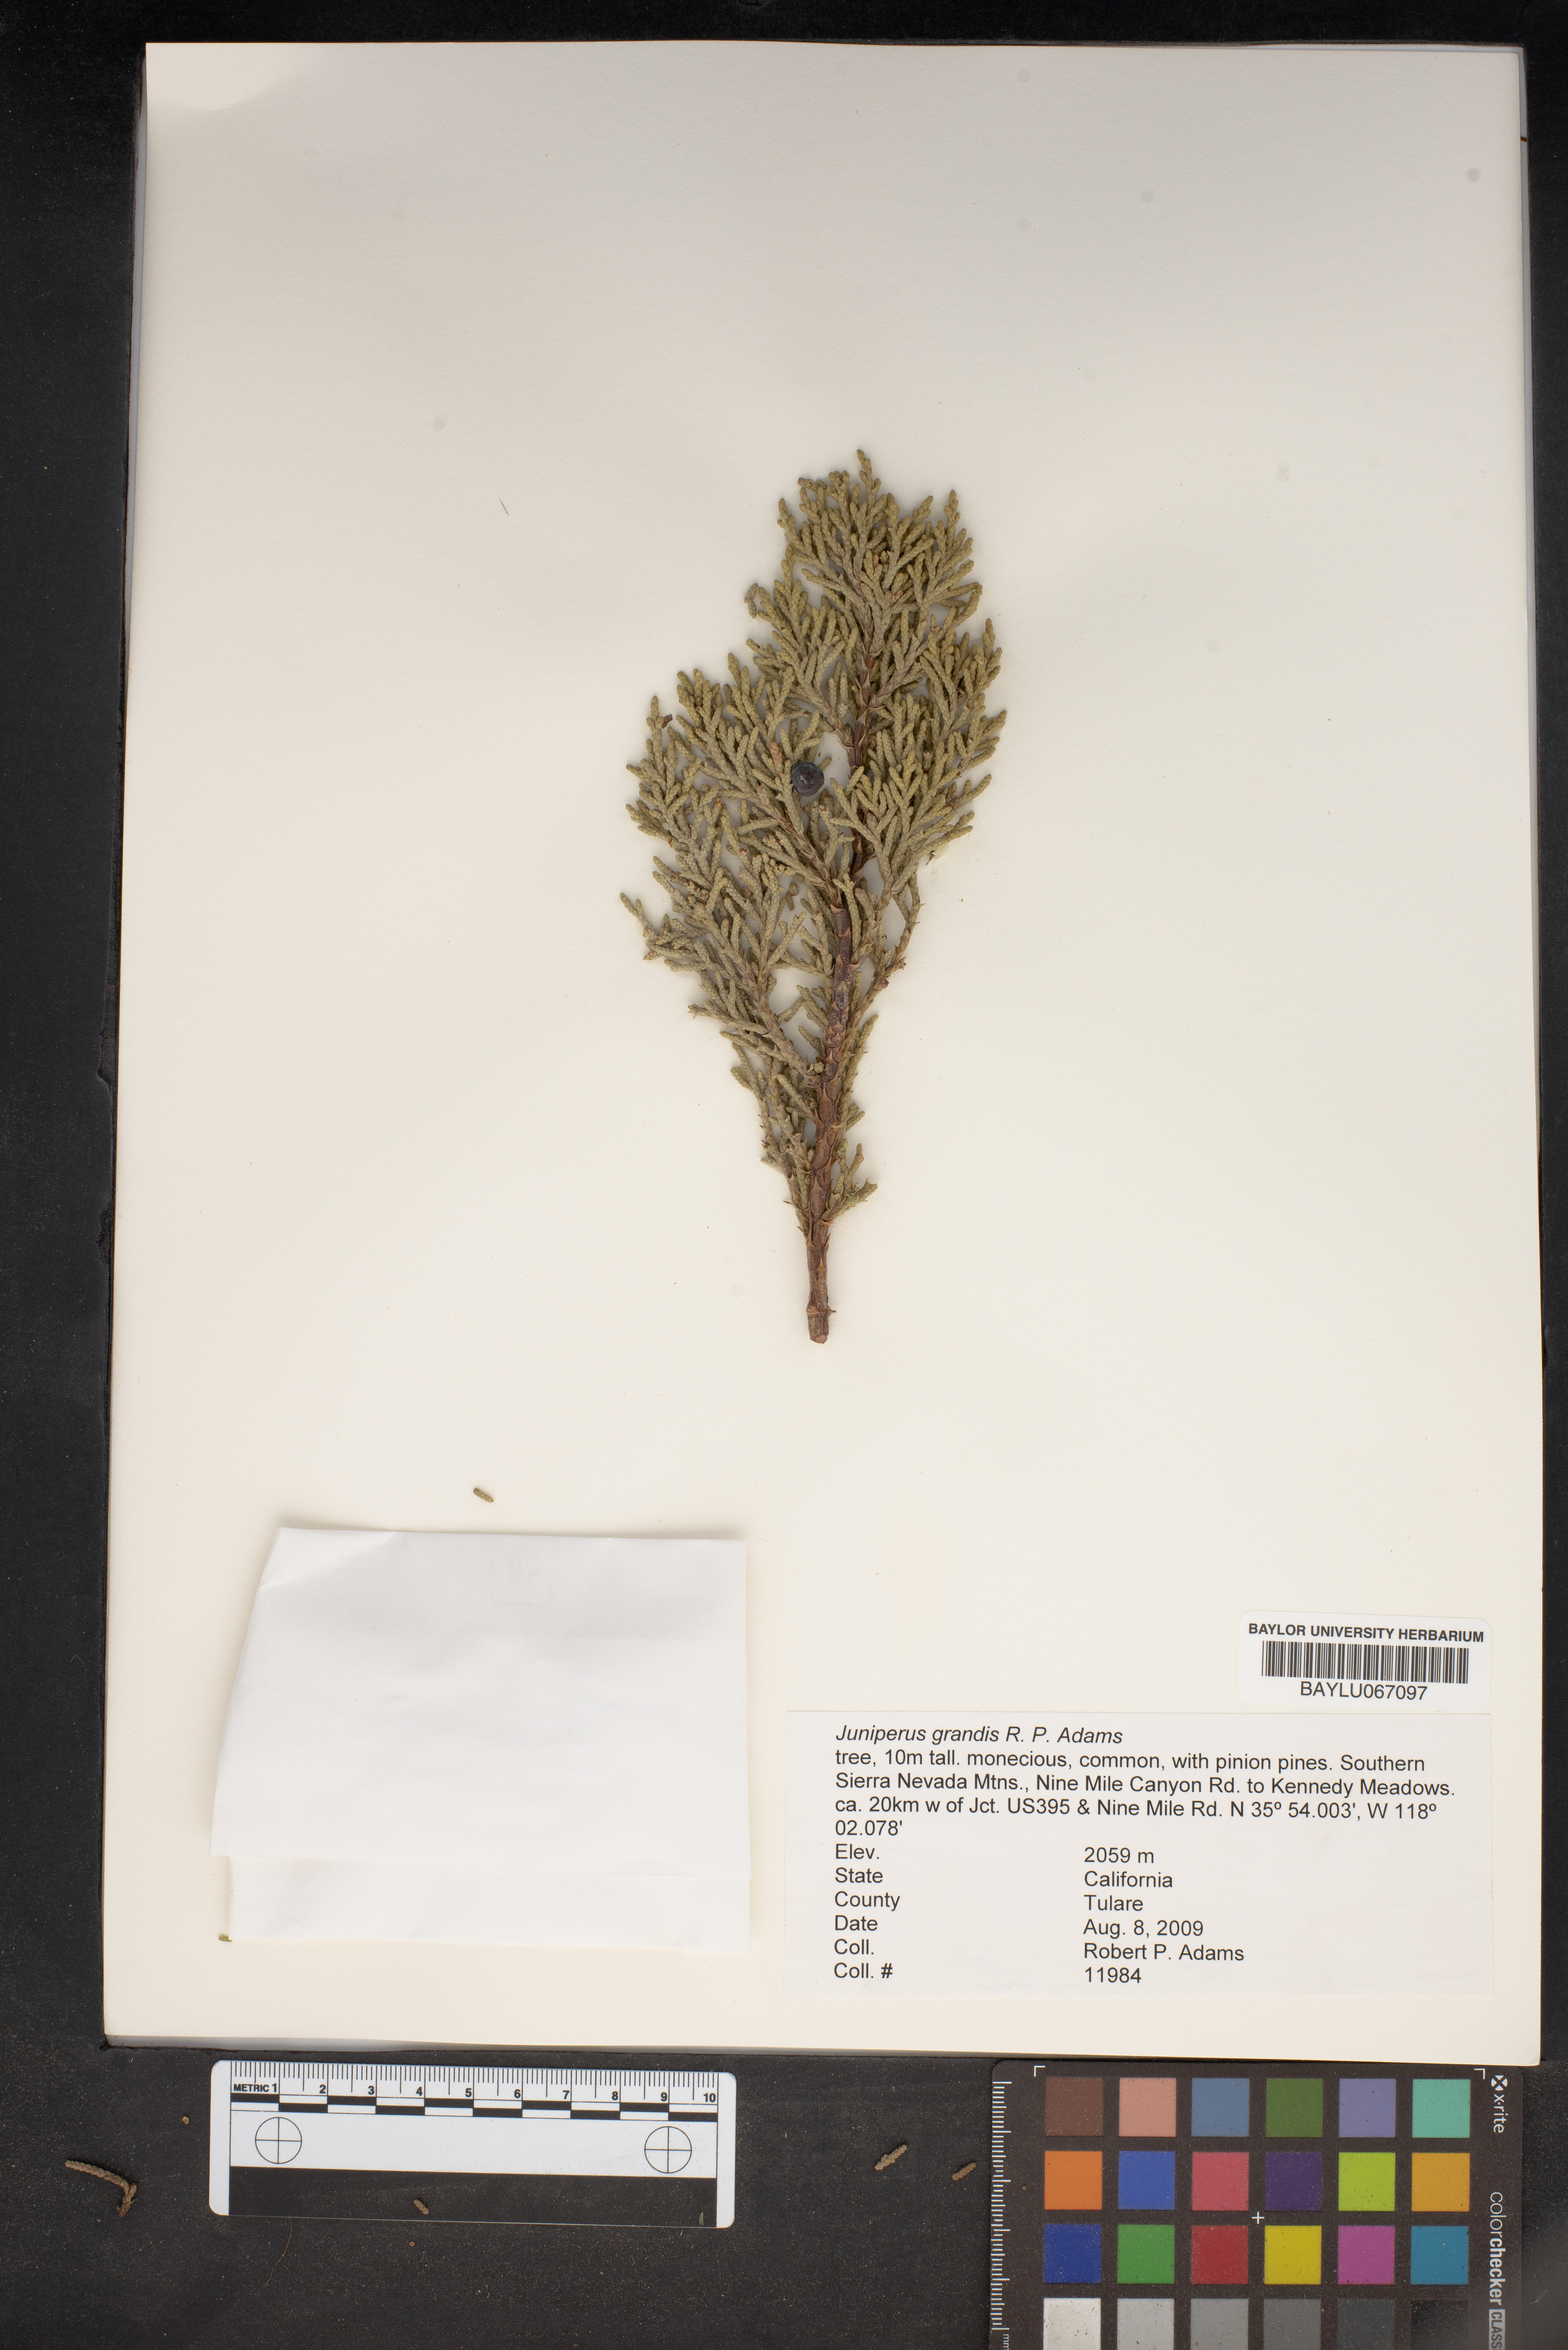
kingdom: Plantae
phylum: Tracheophyta
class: Pinopsida
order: Pinales
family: Cupressaceae
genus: Juniperus
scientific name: Juniperus occidentalis
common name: Western juniper
